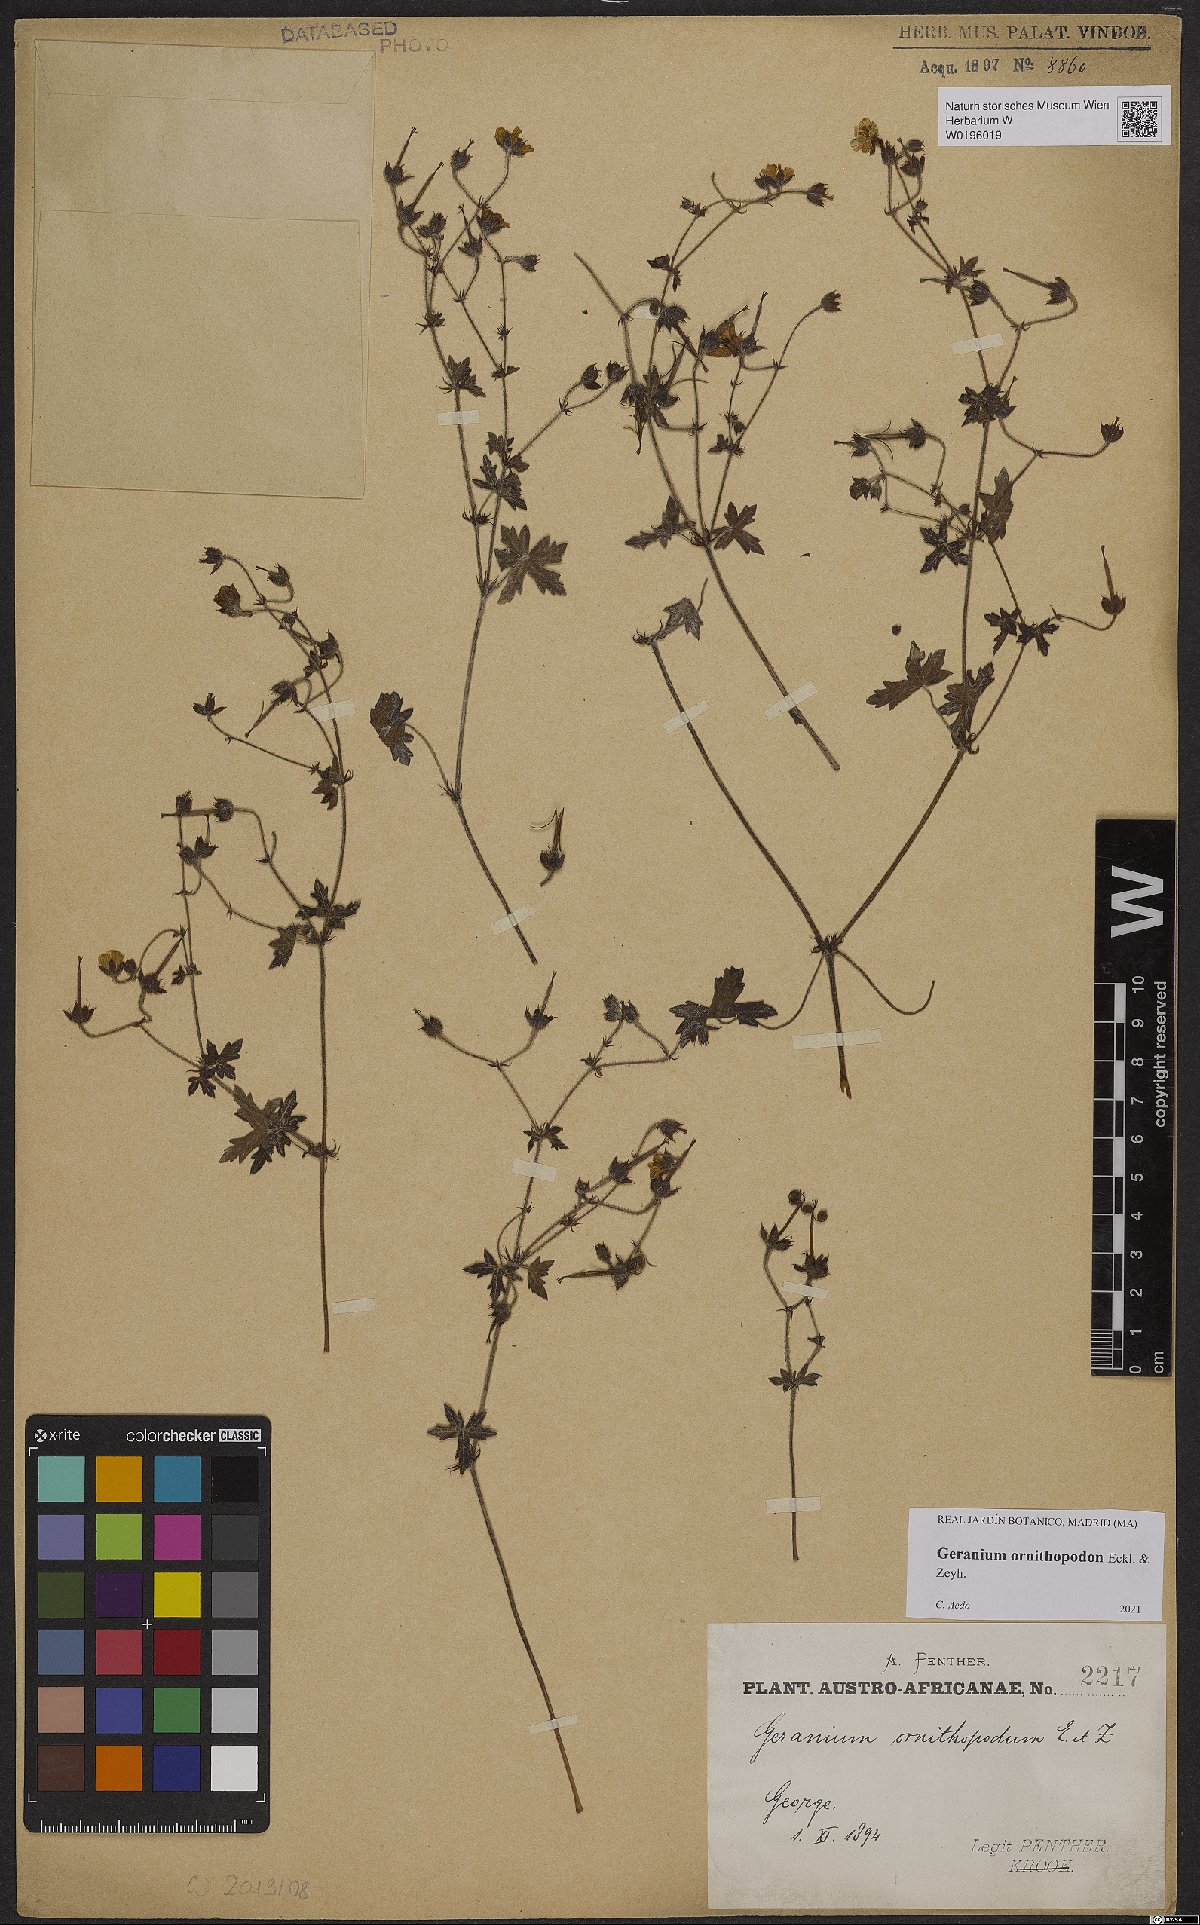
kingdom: Plantae
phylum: Tracheophyta
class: Magnoliopsida
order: Geraniales
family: Geraniaceae
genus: Geranium
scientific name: Geranium ornithopodon
